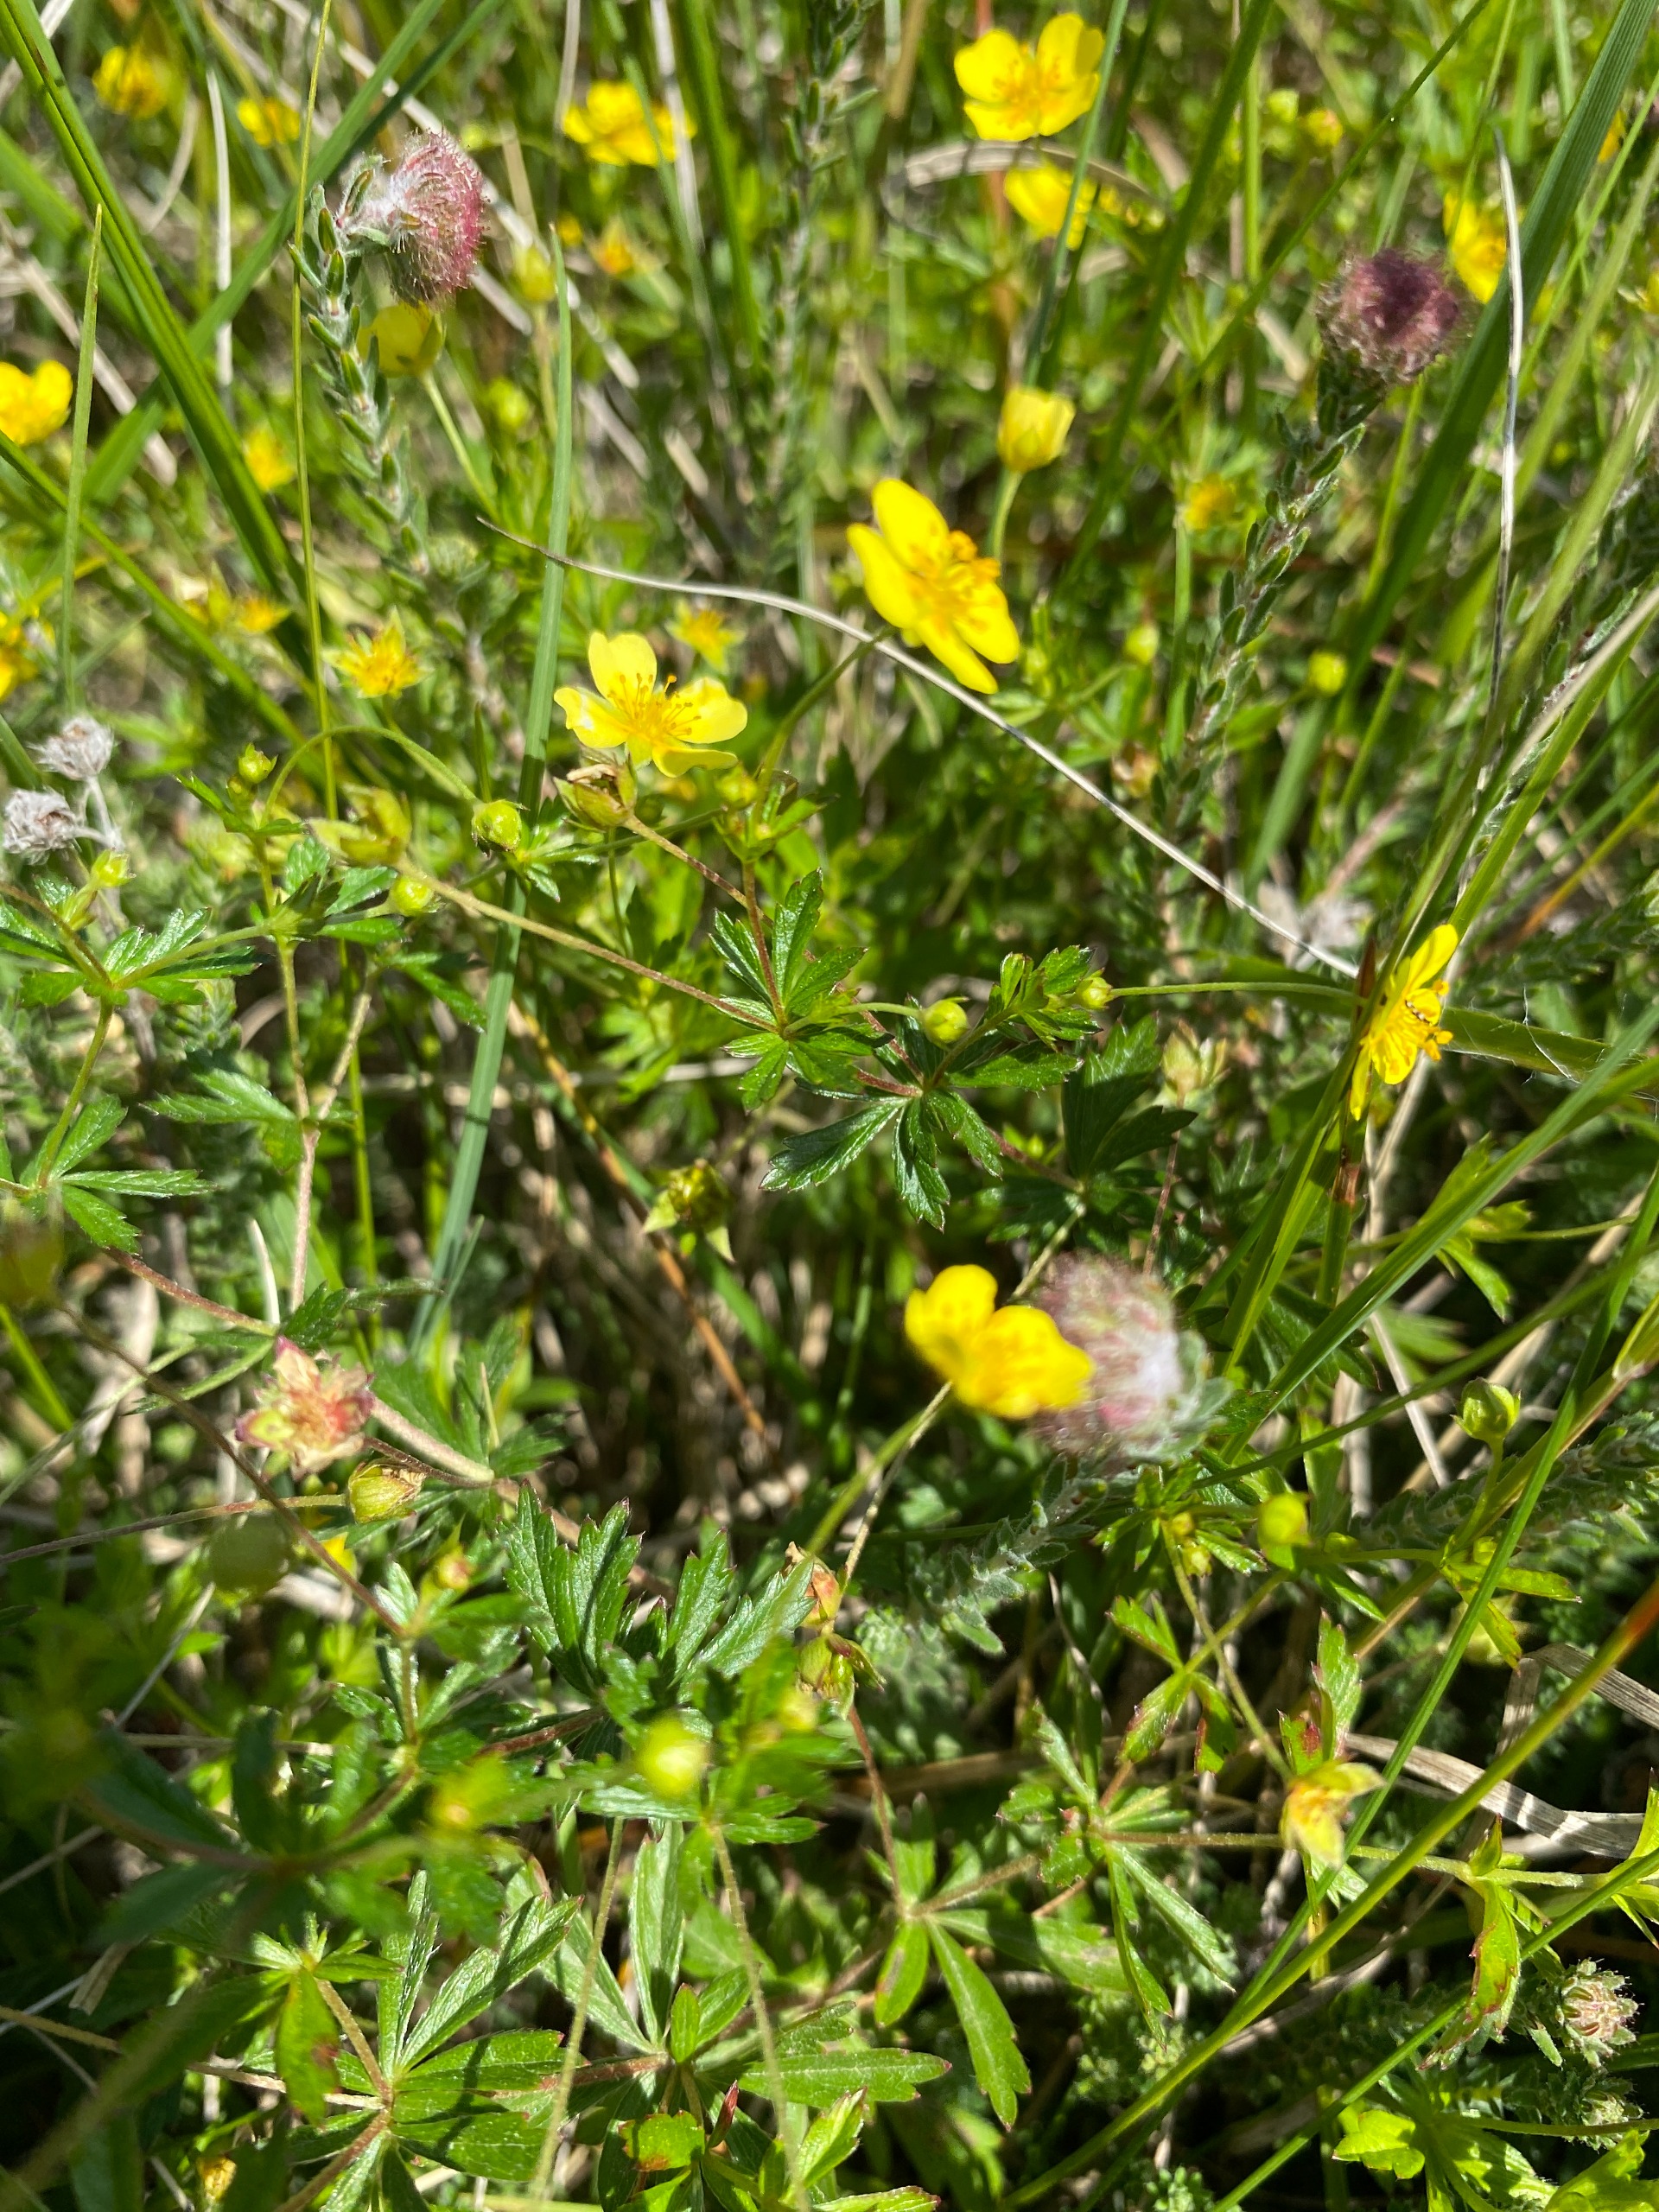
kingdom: Plantae
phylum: Tracheophyta
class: Magnoliopsida
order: Rosales
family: Rosaceae
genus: Potentilla
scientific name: Potentilla erecta
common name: Tormentil
